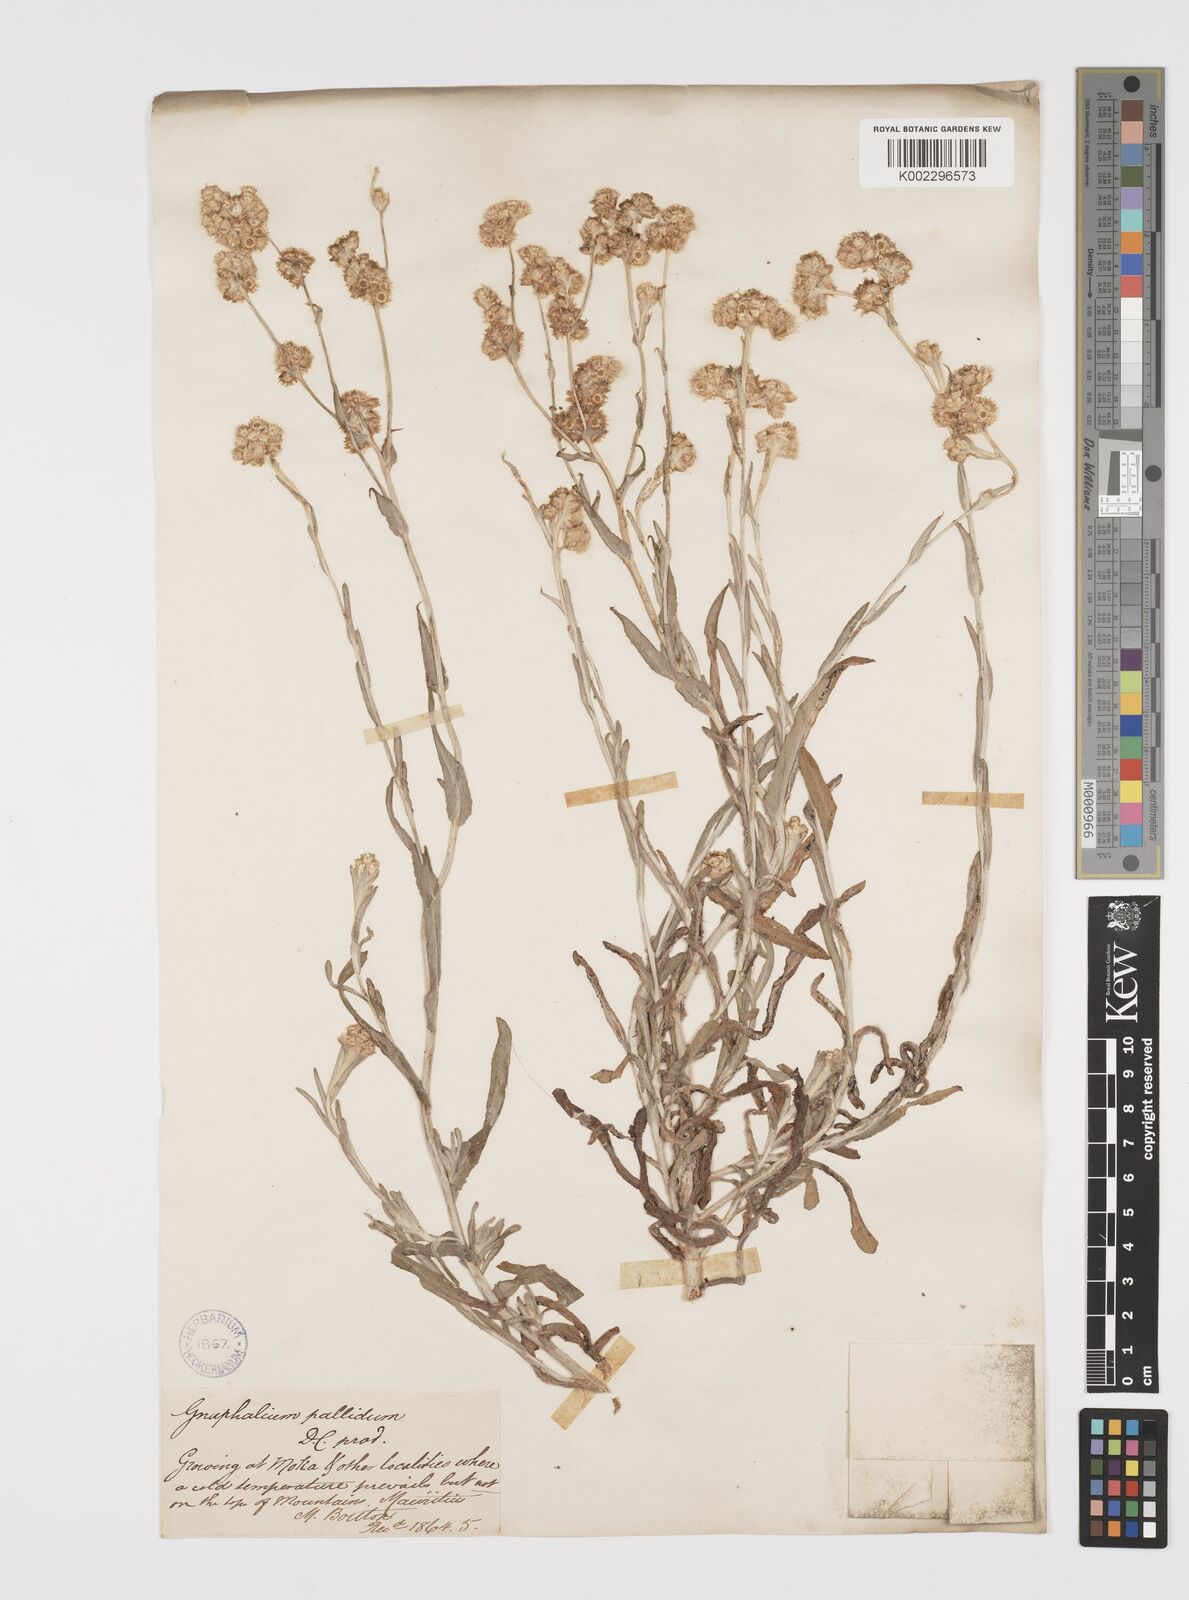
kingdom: Plantae
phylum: Tracheophyta
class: Magnoliopsida
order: Asterales
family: Asteraceae
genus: Helichrysum
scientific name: Helichrysum luteoalbum
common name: Daisy
